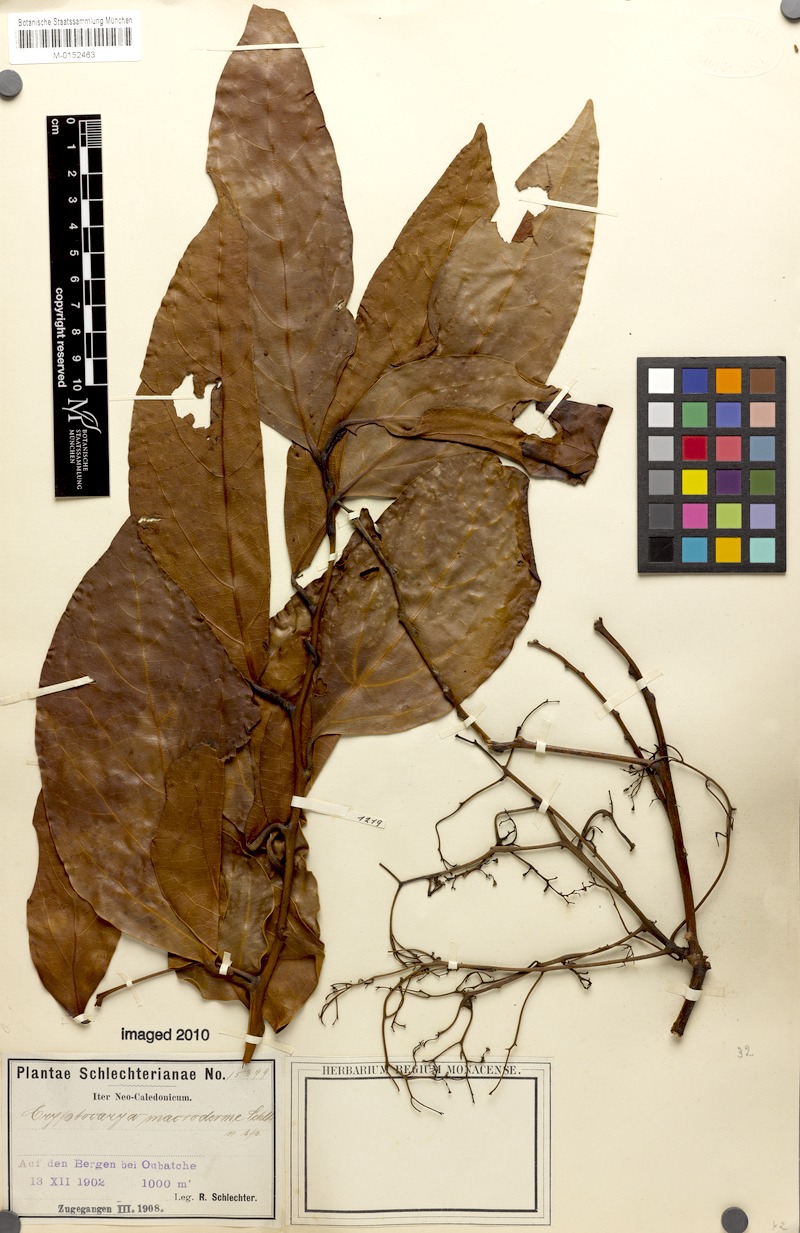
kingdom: Plantae
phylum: Tracheophyta
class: Magnoliopsida
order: Laurales
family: Lauraceae
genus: Cryptocarya
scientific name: Cryptocarya macrodesme
